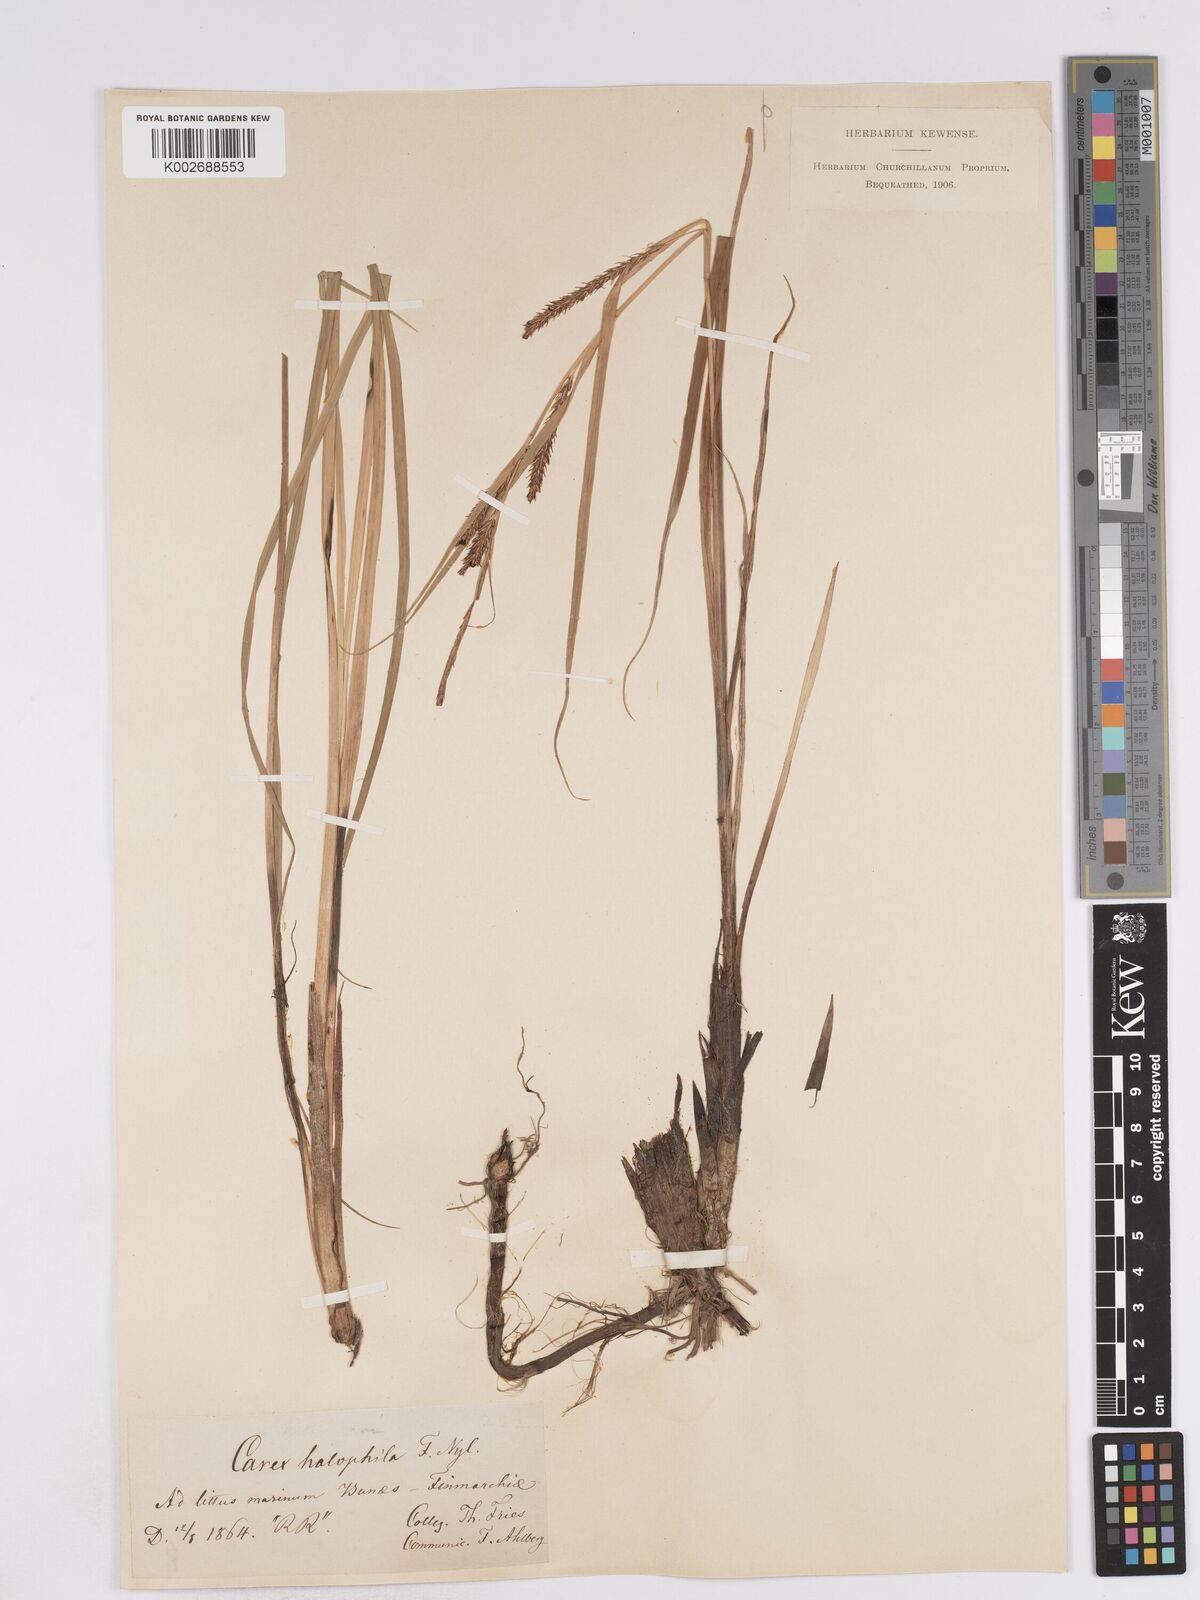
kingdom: Plantae
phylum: Tracheophyta
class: Liliopsida
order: Poales
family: Cyperaceae
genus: Carex
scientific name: Carex recta
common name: Estuarine sedge
